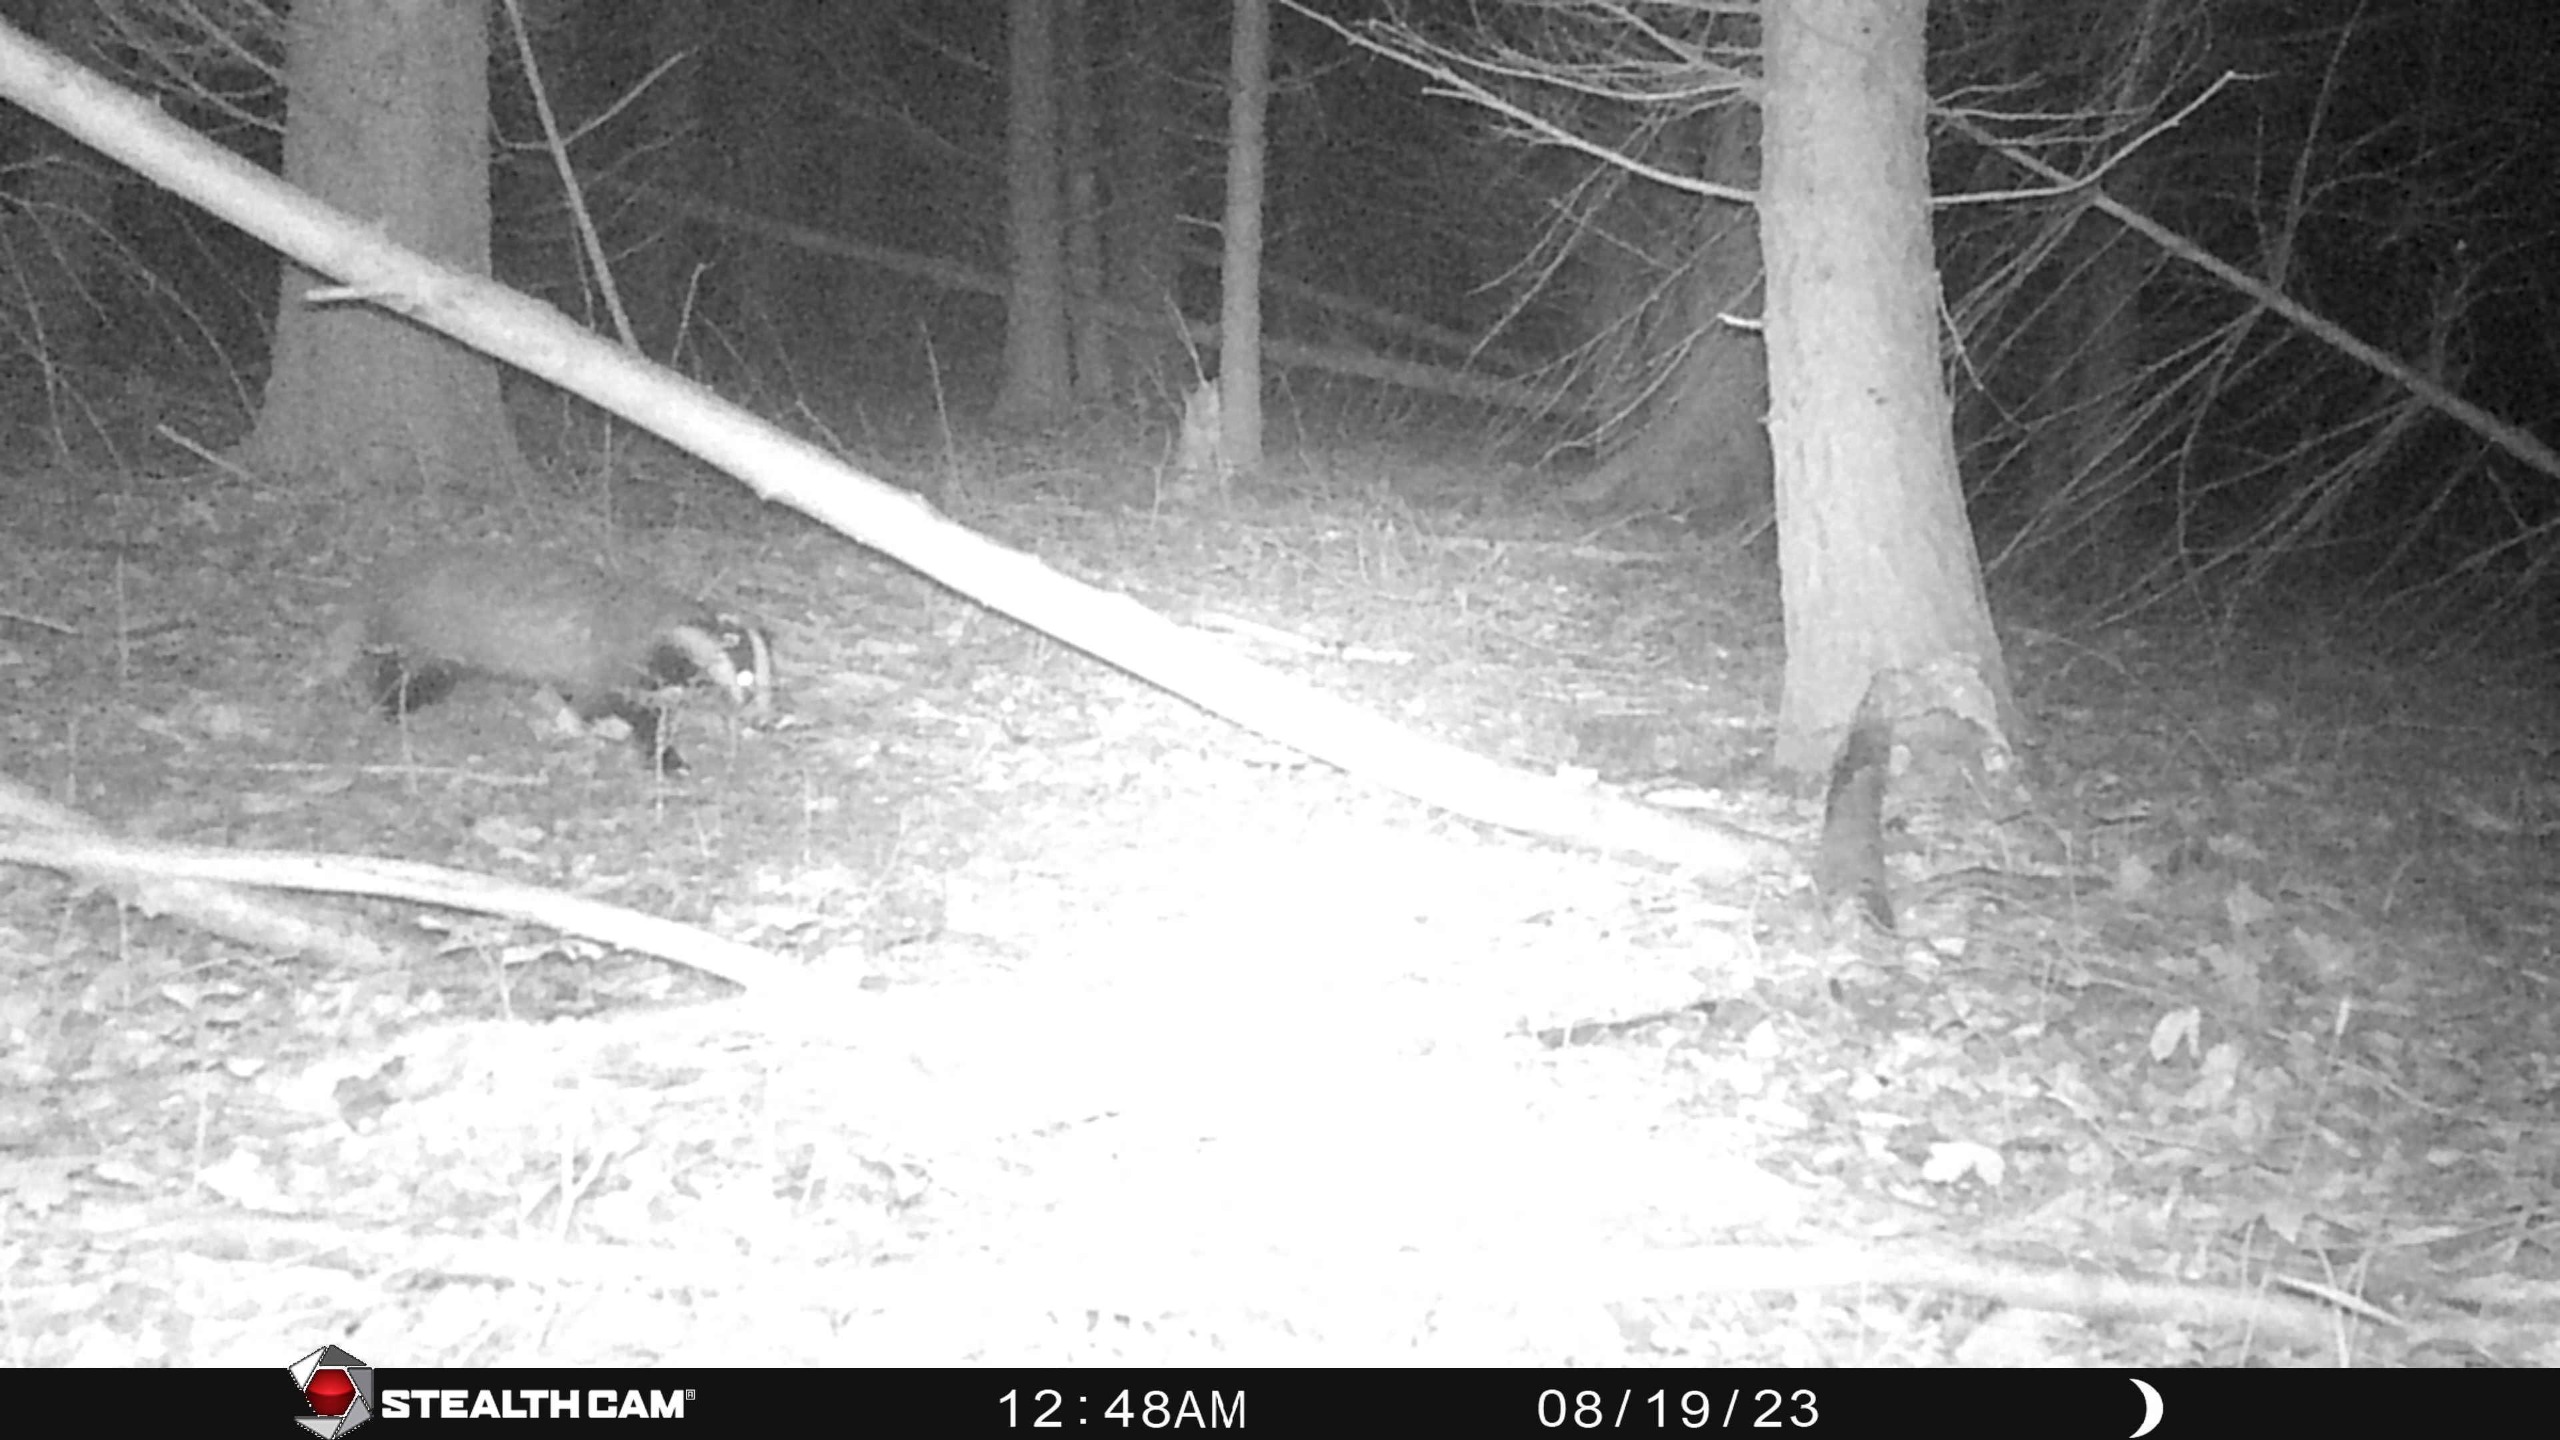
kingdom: Animalia
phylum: Chordata
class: Mammalia
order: Carnivora
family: Mustelidae
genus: Meles
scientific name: Meles meles
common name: Grævling
